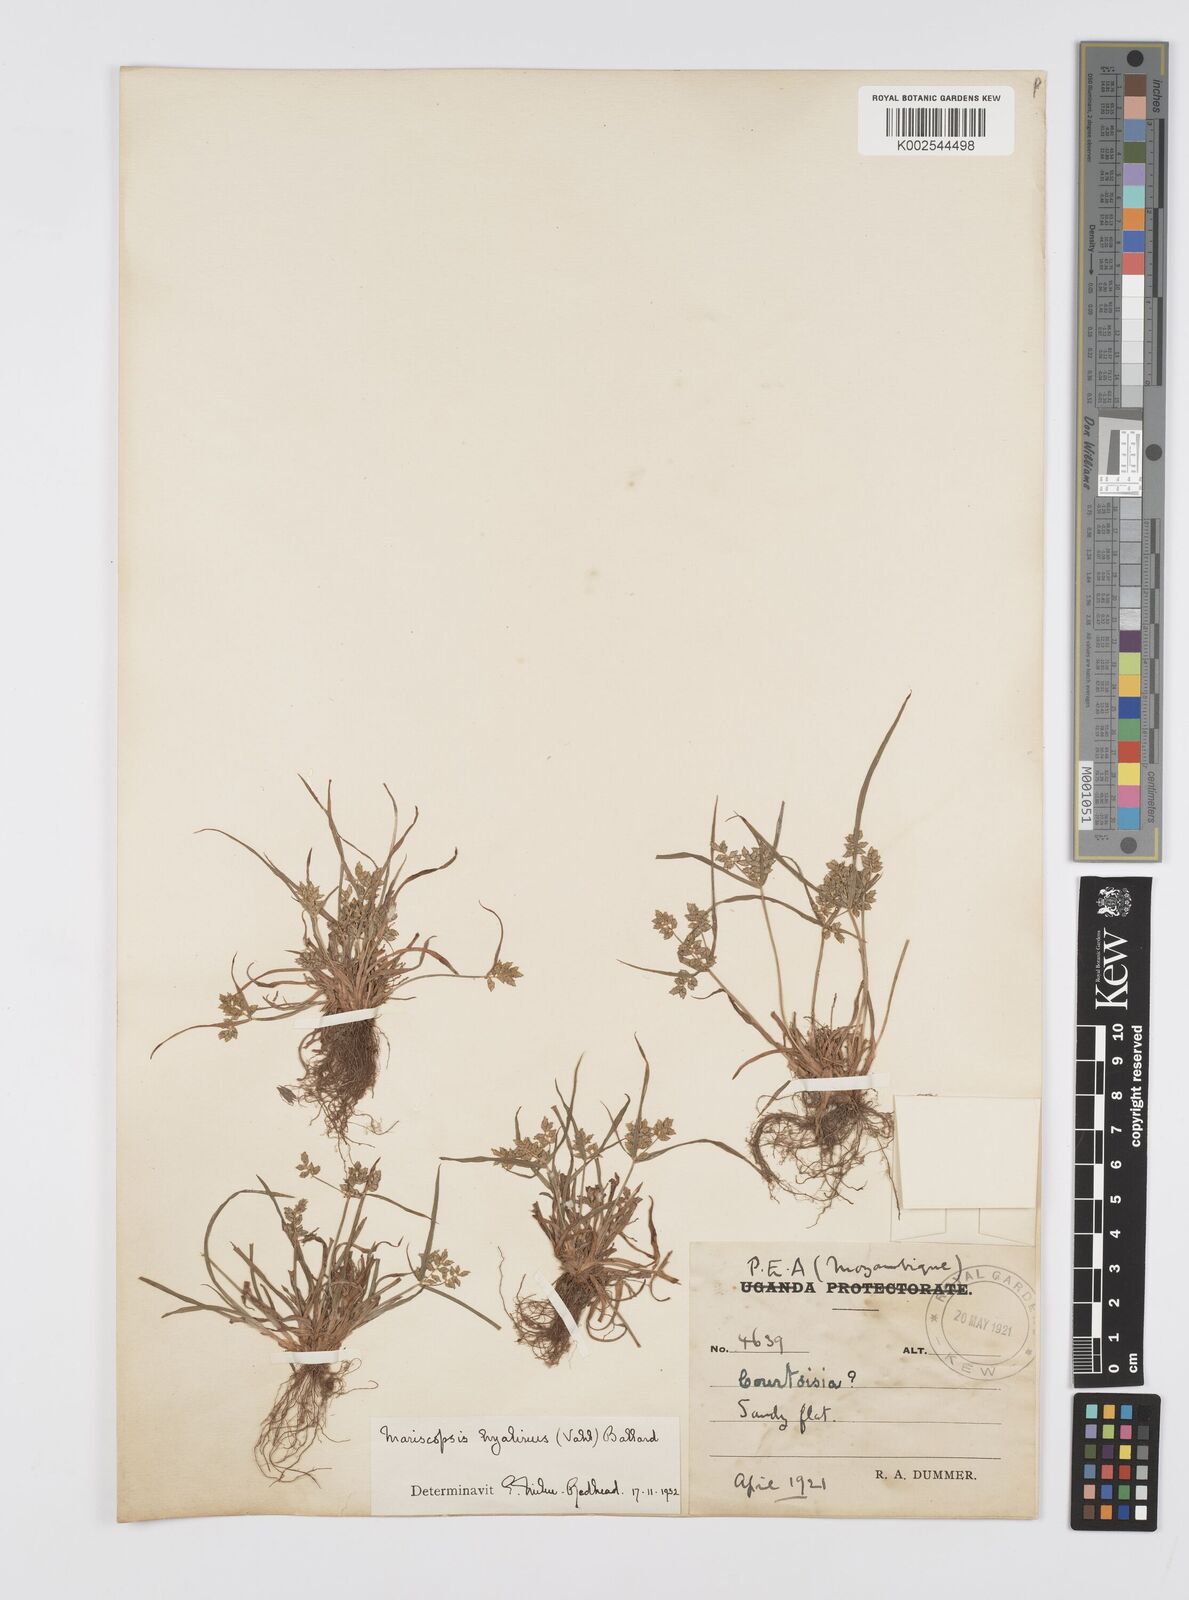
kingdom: Plantae
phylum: Tracheophyta
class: Liliopsida
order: Poales
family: Cyperaceae
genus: Cyperus
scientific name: Cyperus hyalinus
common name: Queensland sedge
